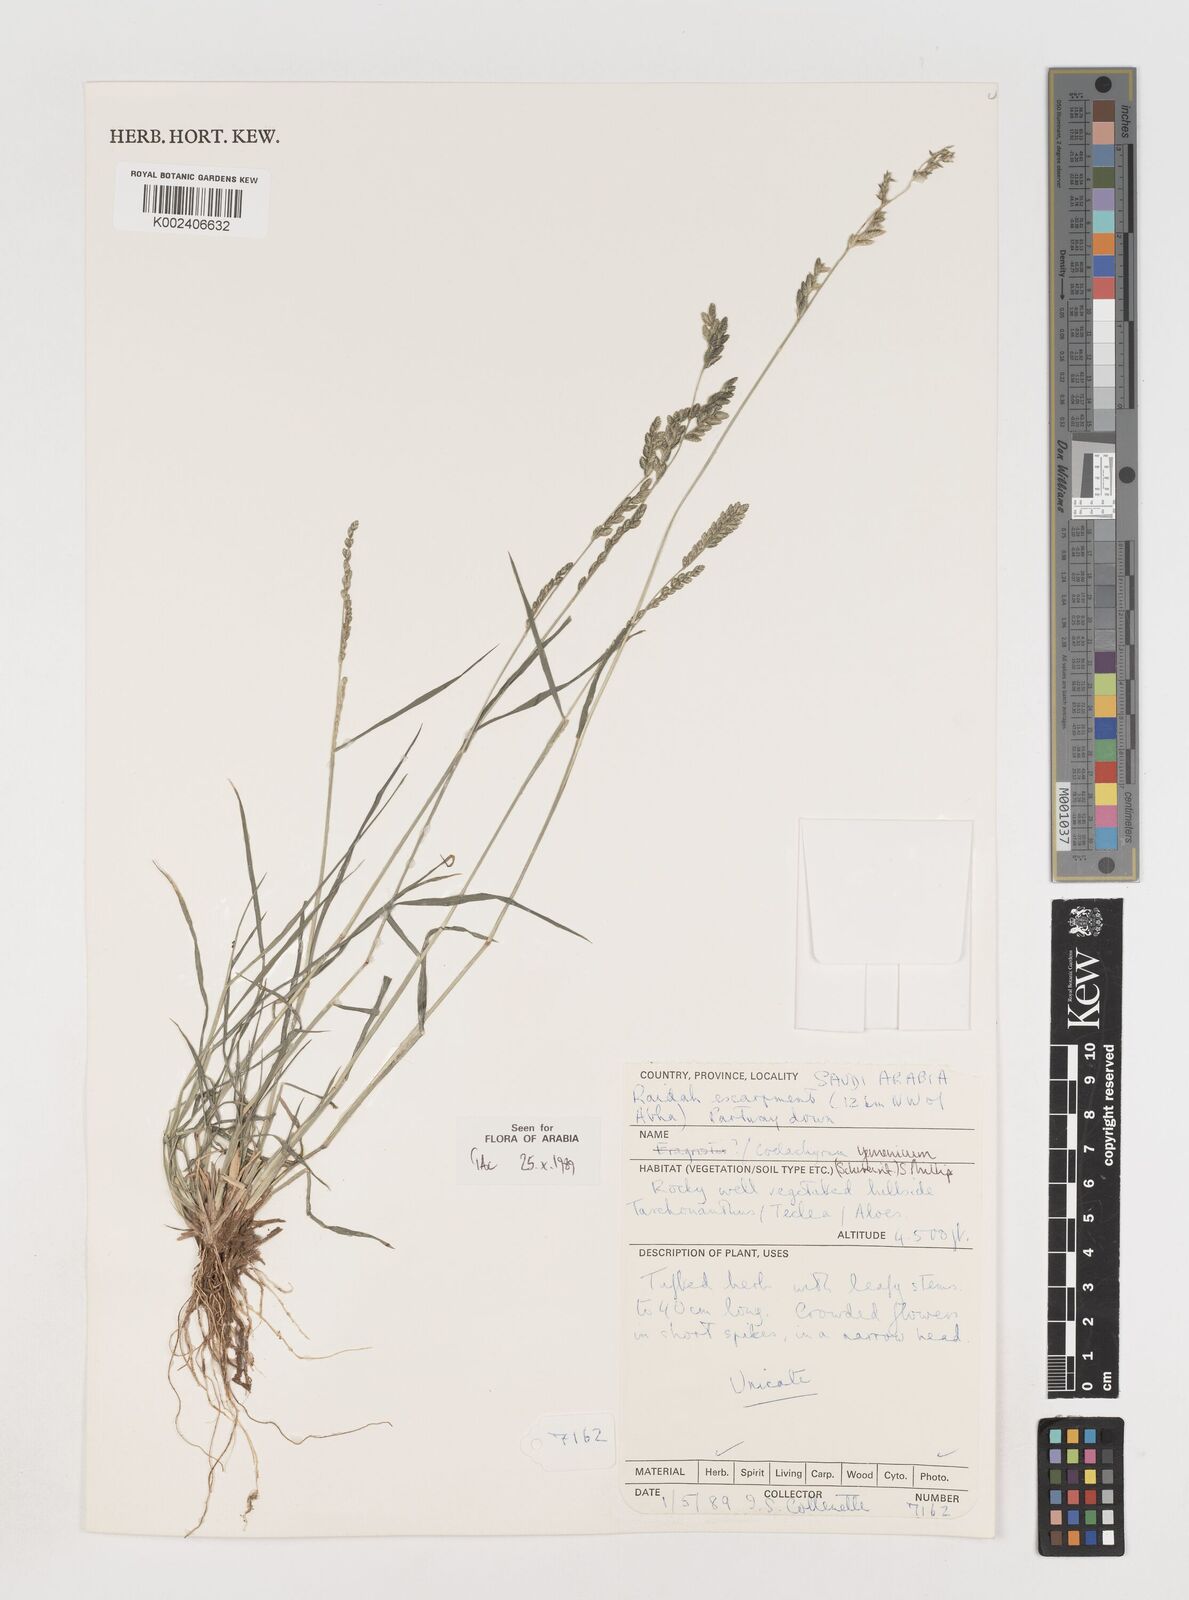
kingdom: Plantae
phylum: Tracheophyta
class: Liliopsida
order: Poales
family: Poaceae
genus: Disakisperma
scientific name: Disakisperma yemenicum
